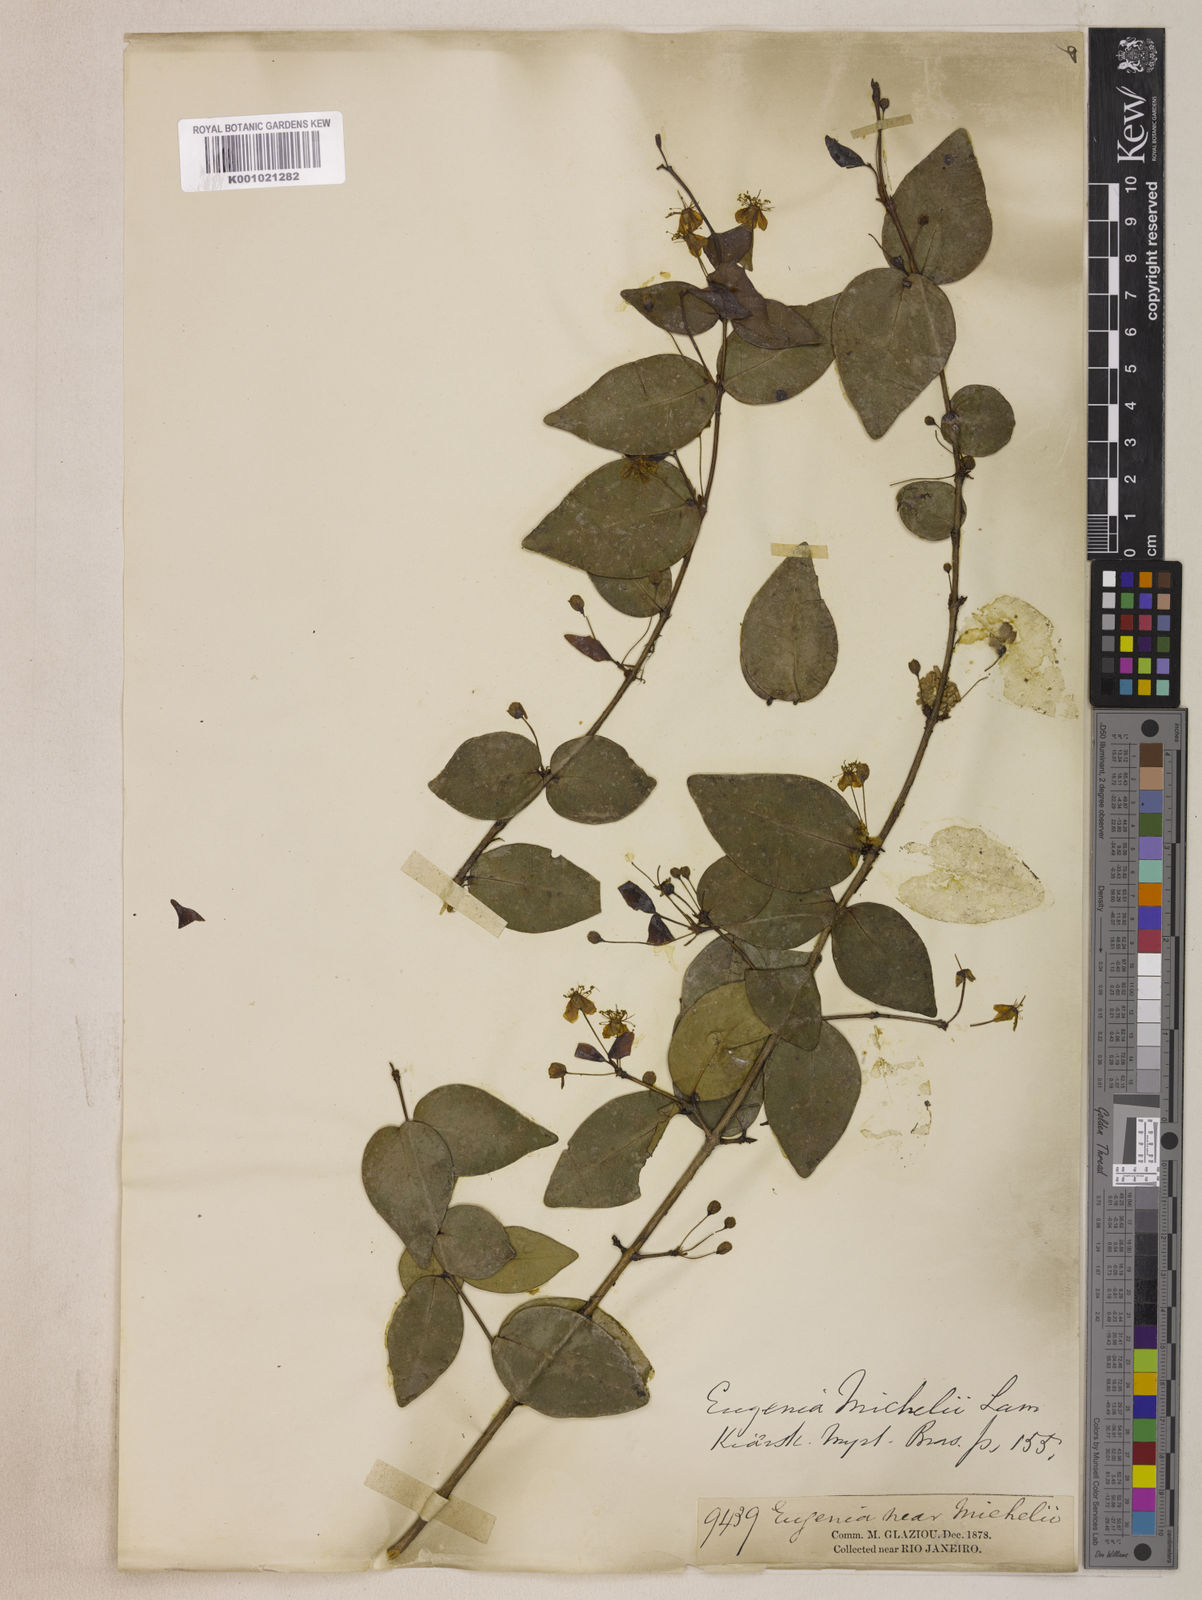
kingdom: Plantae
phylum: Tracheophyta
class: Magnoliopsida
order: Myrtales
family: Myrtaceae
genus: Eugenia
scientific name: Eugenia uniflora
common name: Surinam cherry
